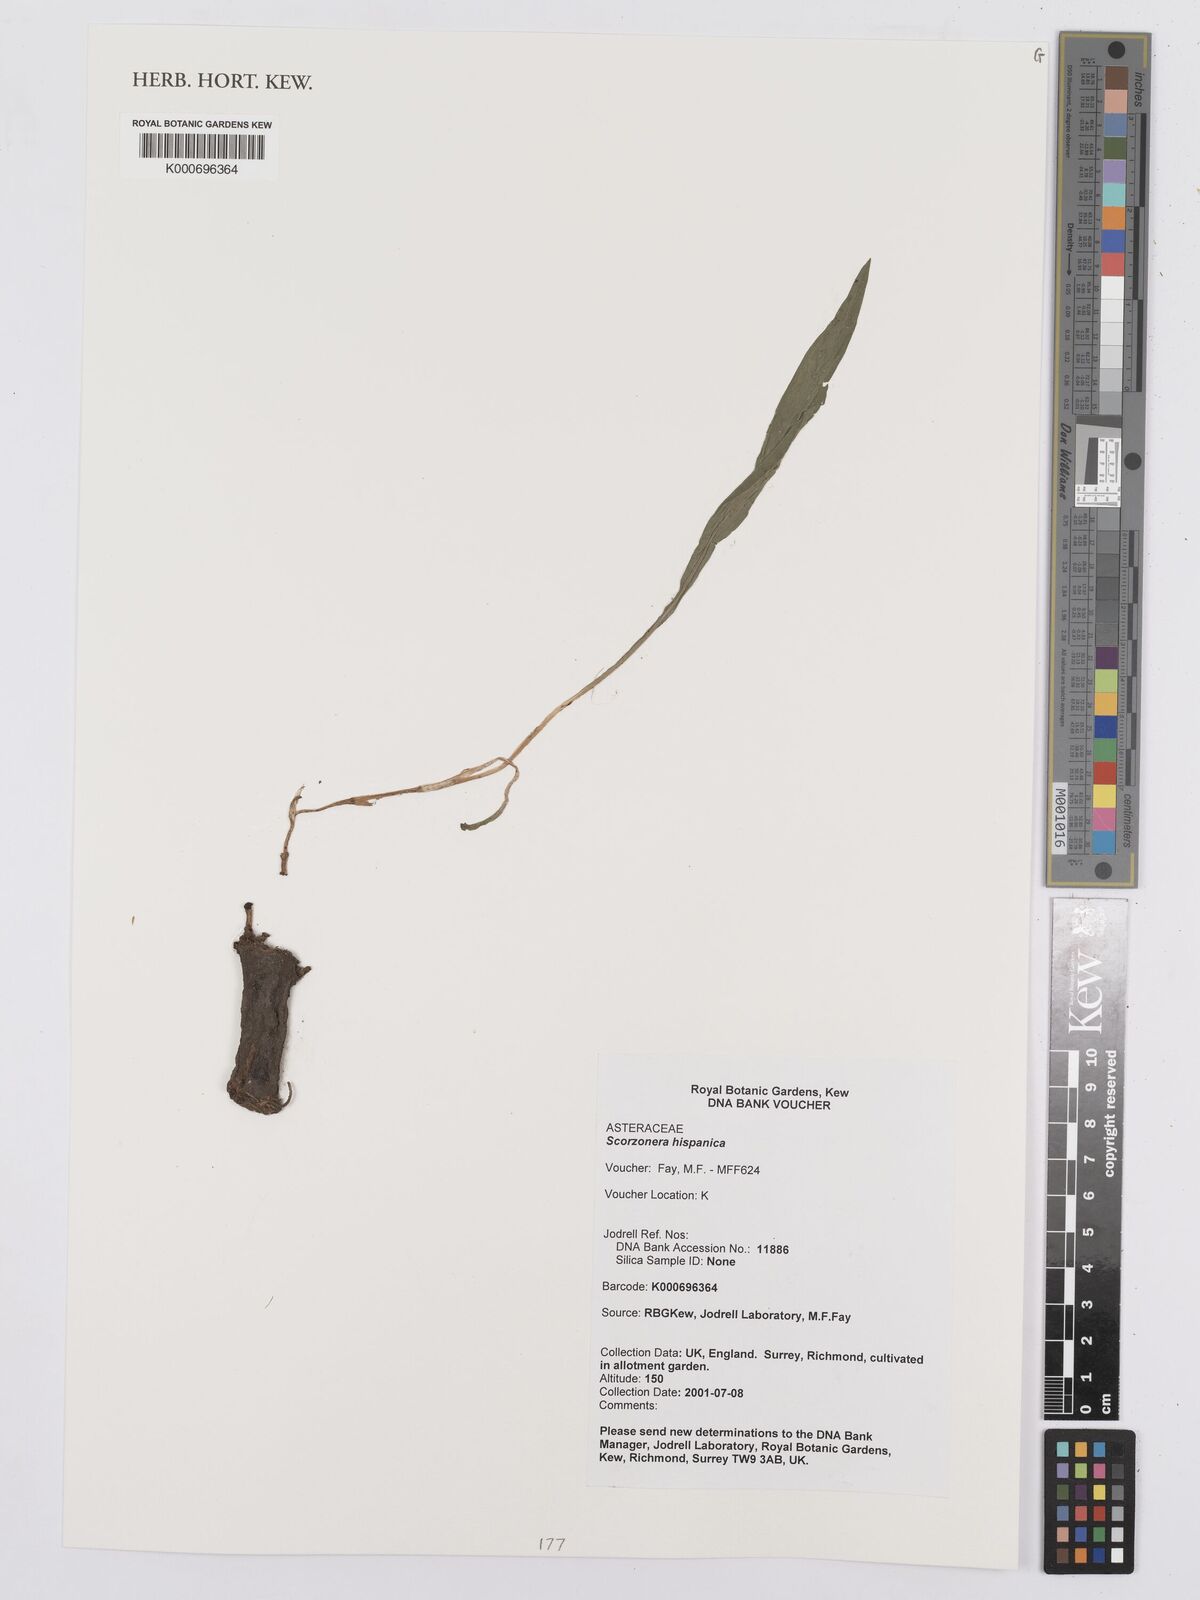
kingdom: Plantae
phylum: Tracheophyta
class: Magnoliopsida
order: Asterales
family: Asteraceae
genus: Pseudopodospermum
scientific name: Pseudopodospermum hispanicum
